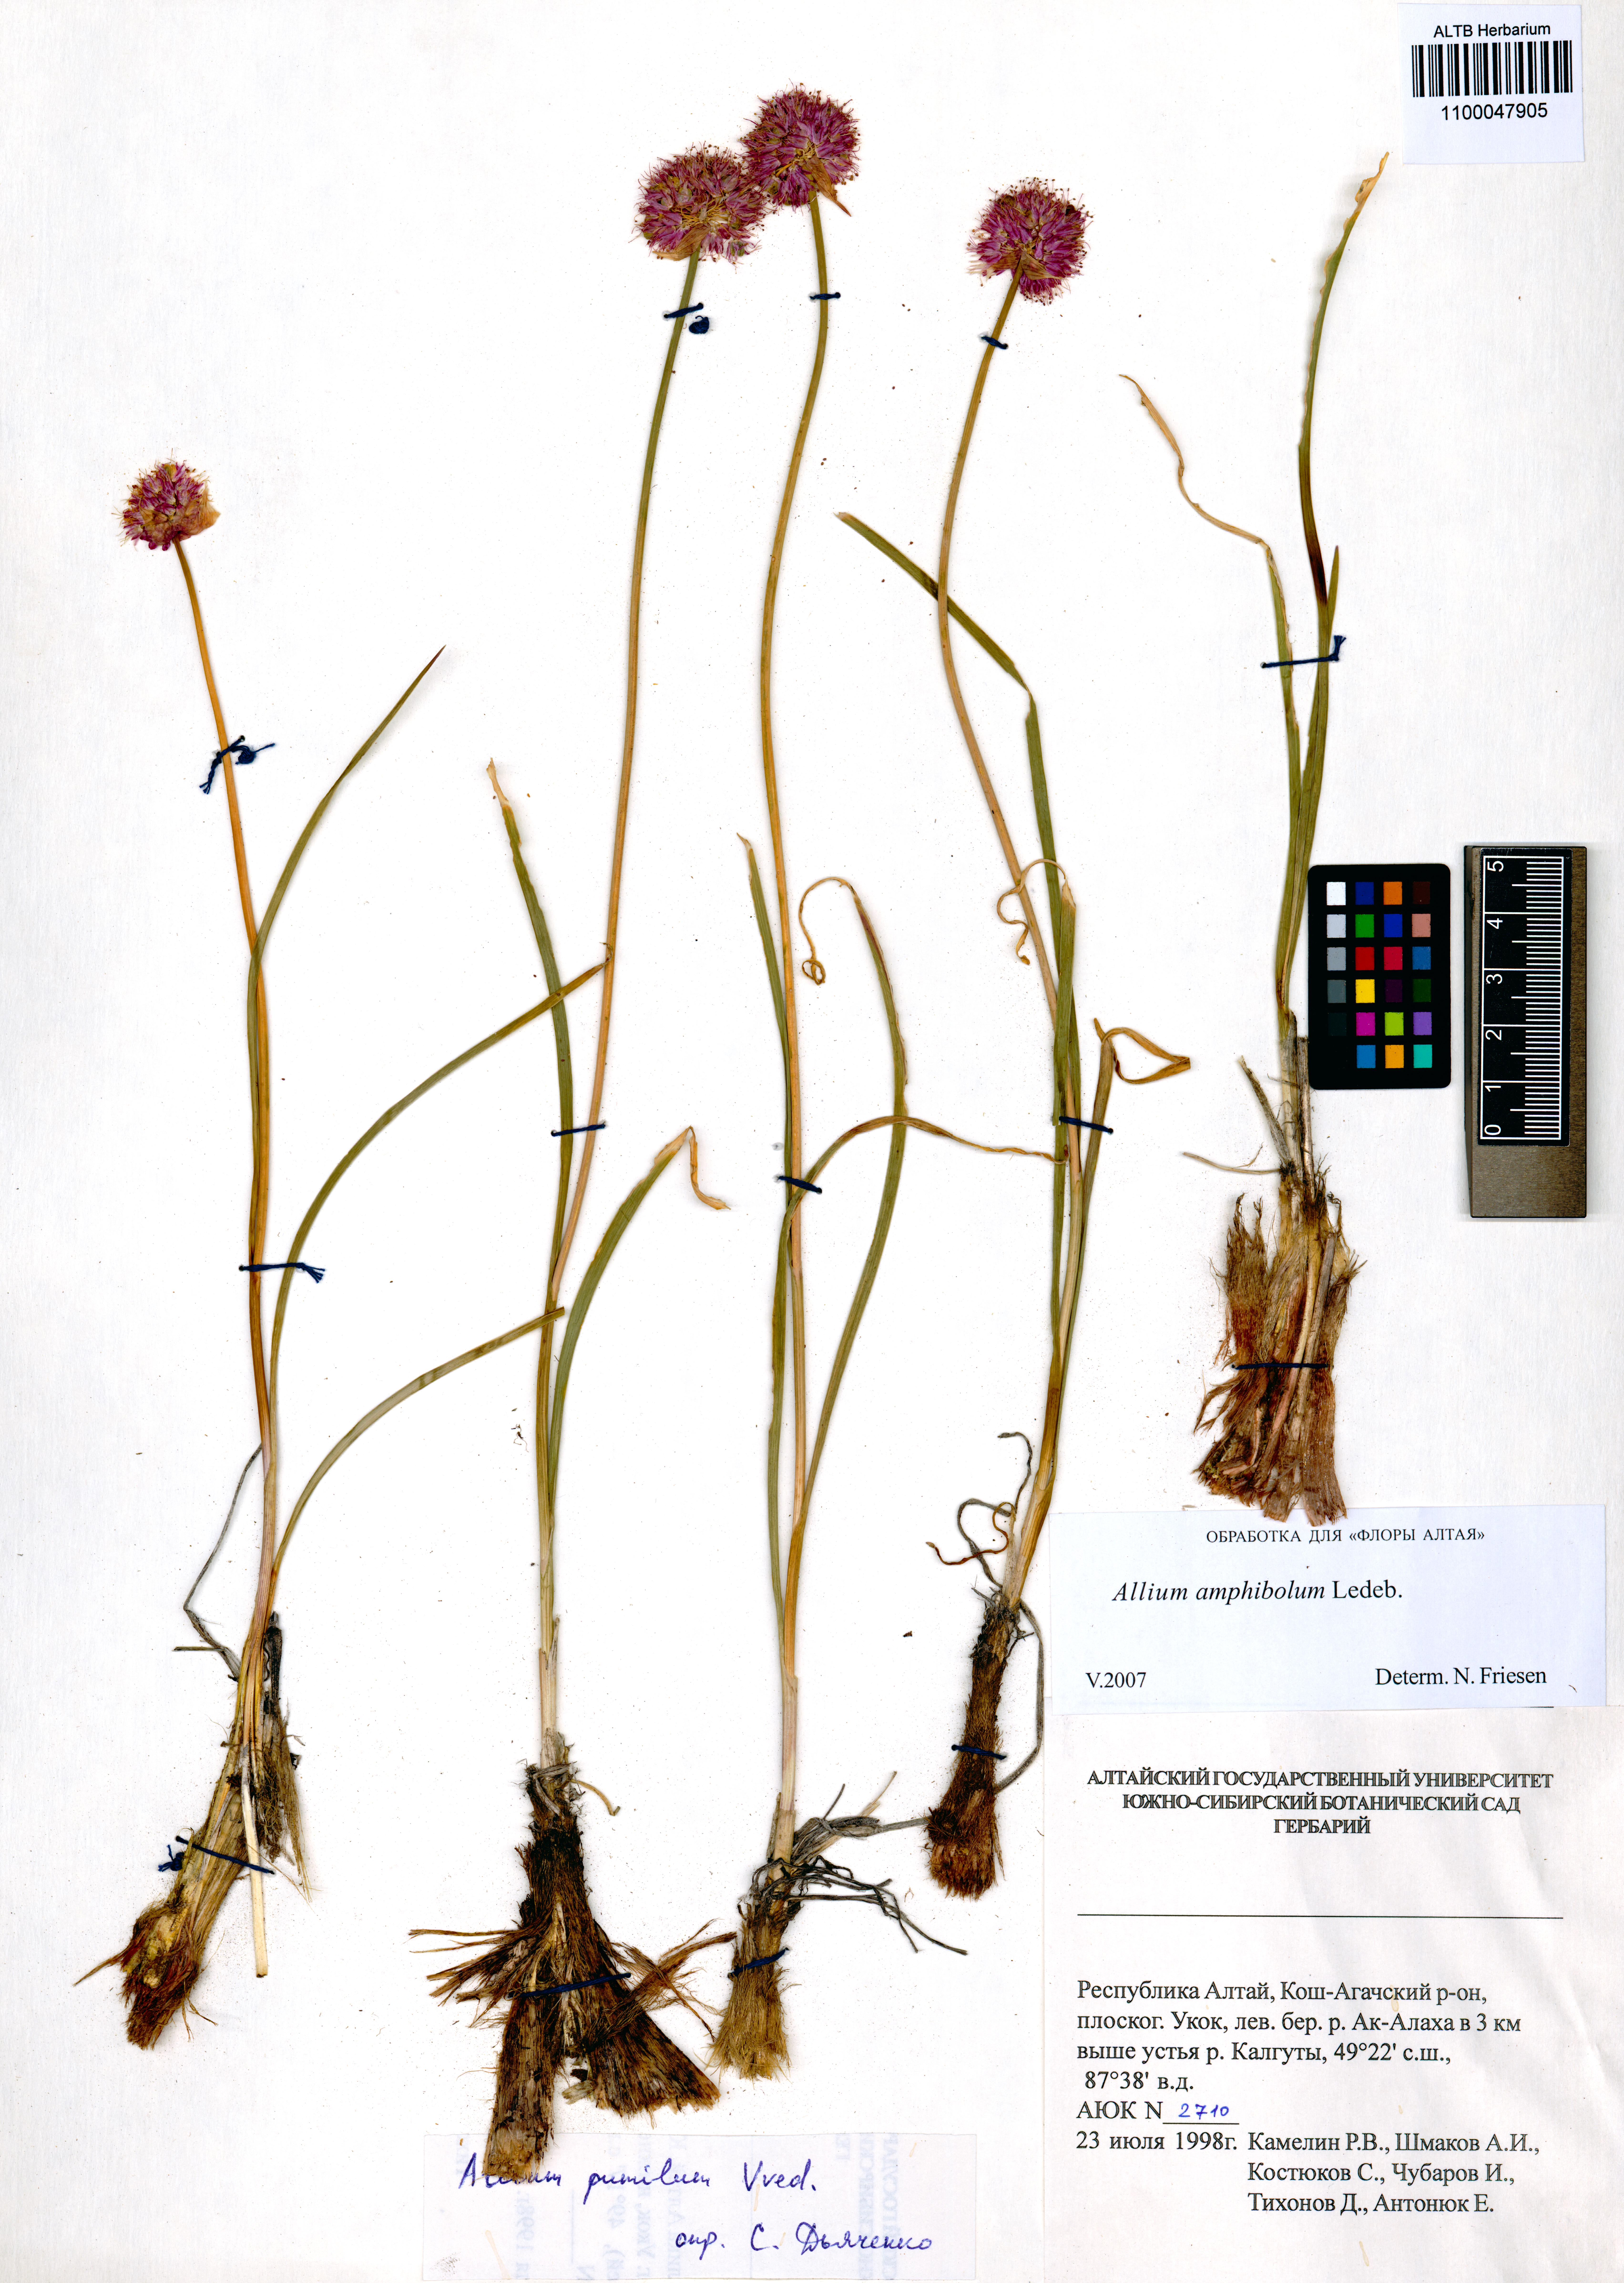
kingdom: Plantae
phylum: Tracheophyta
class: Liliopsida
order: Asparagales
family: Amaryllidaceae
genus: Allium
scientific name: Allium amphibolum
